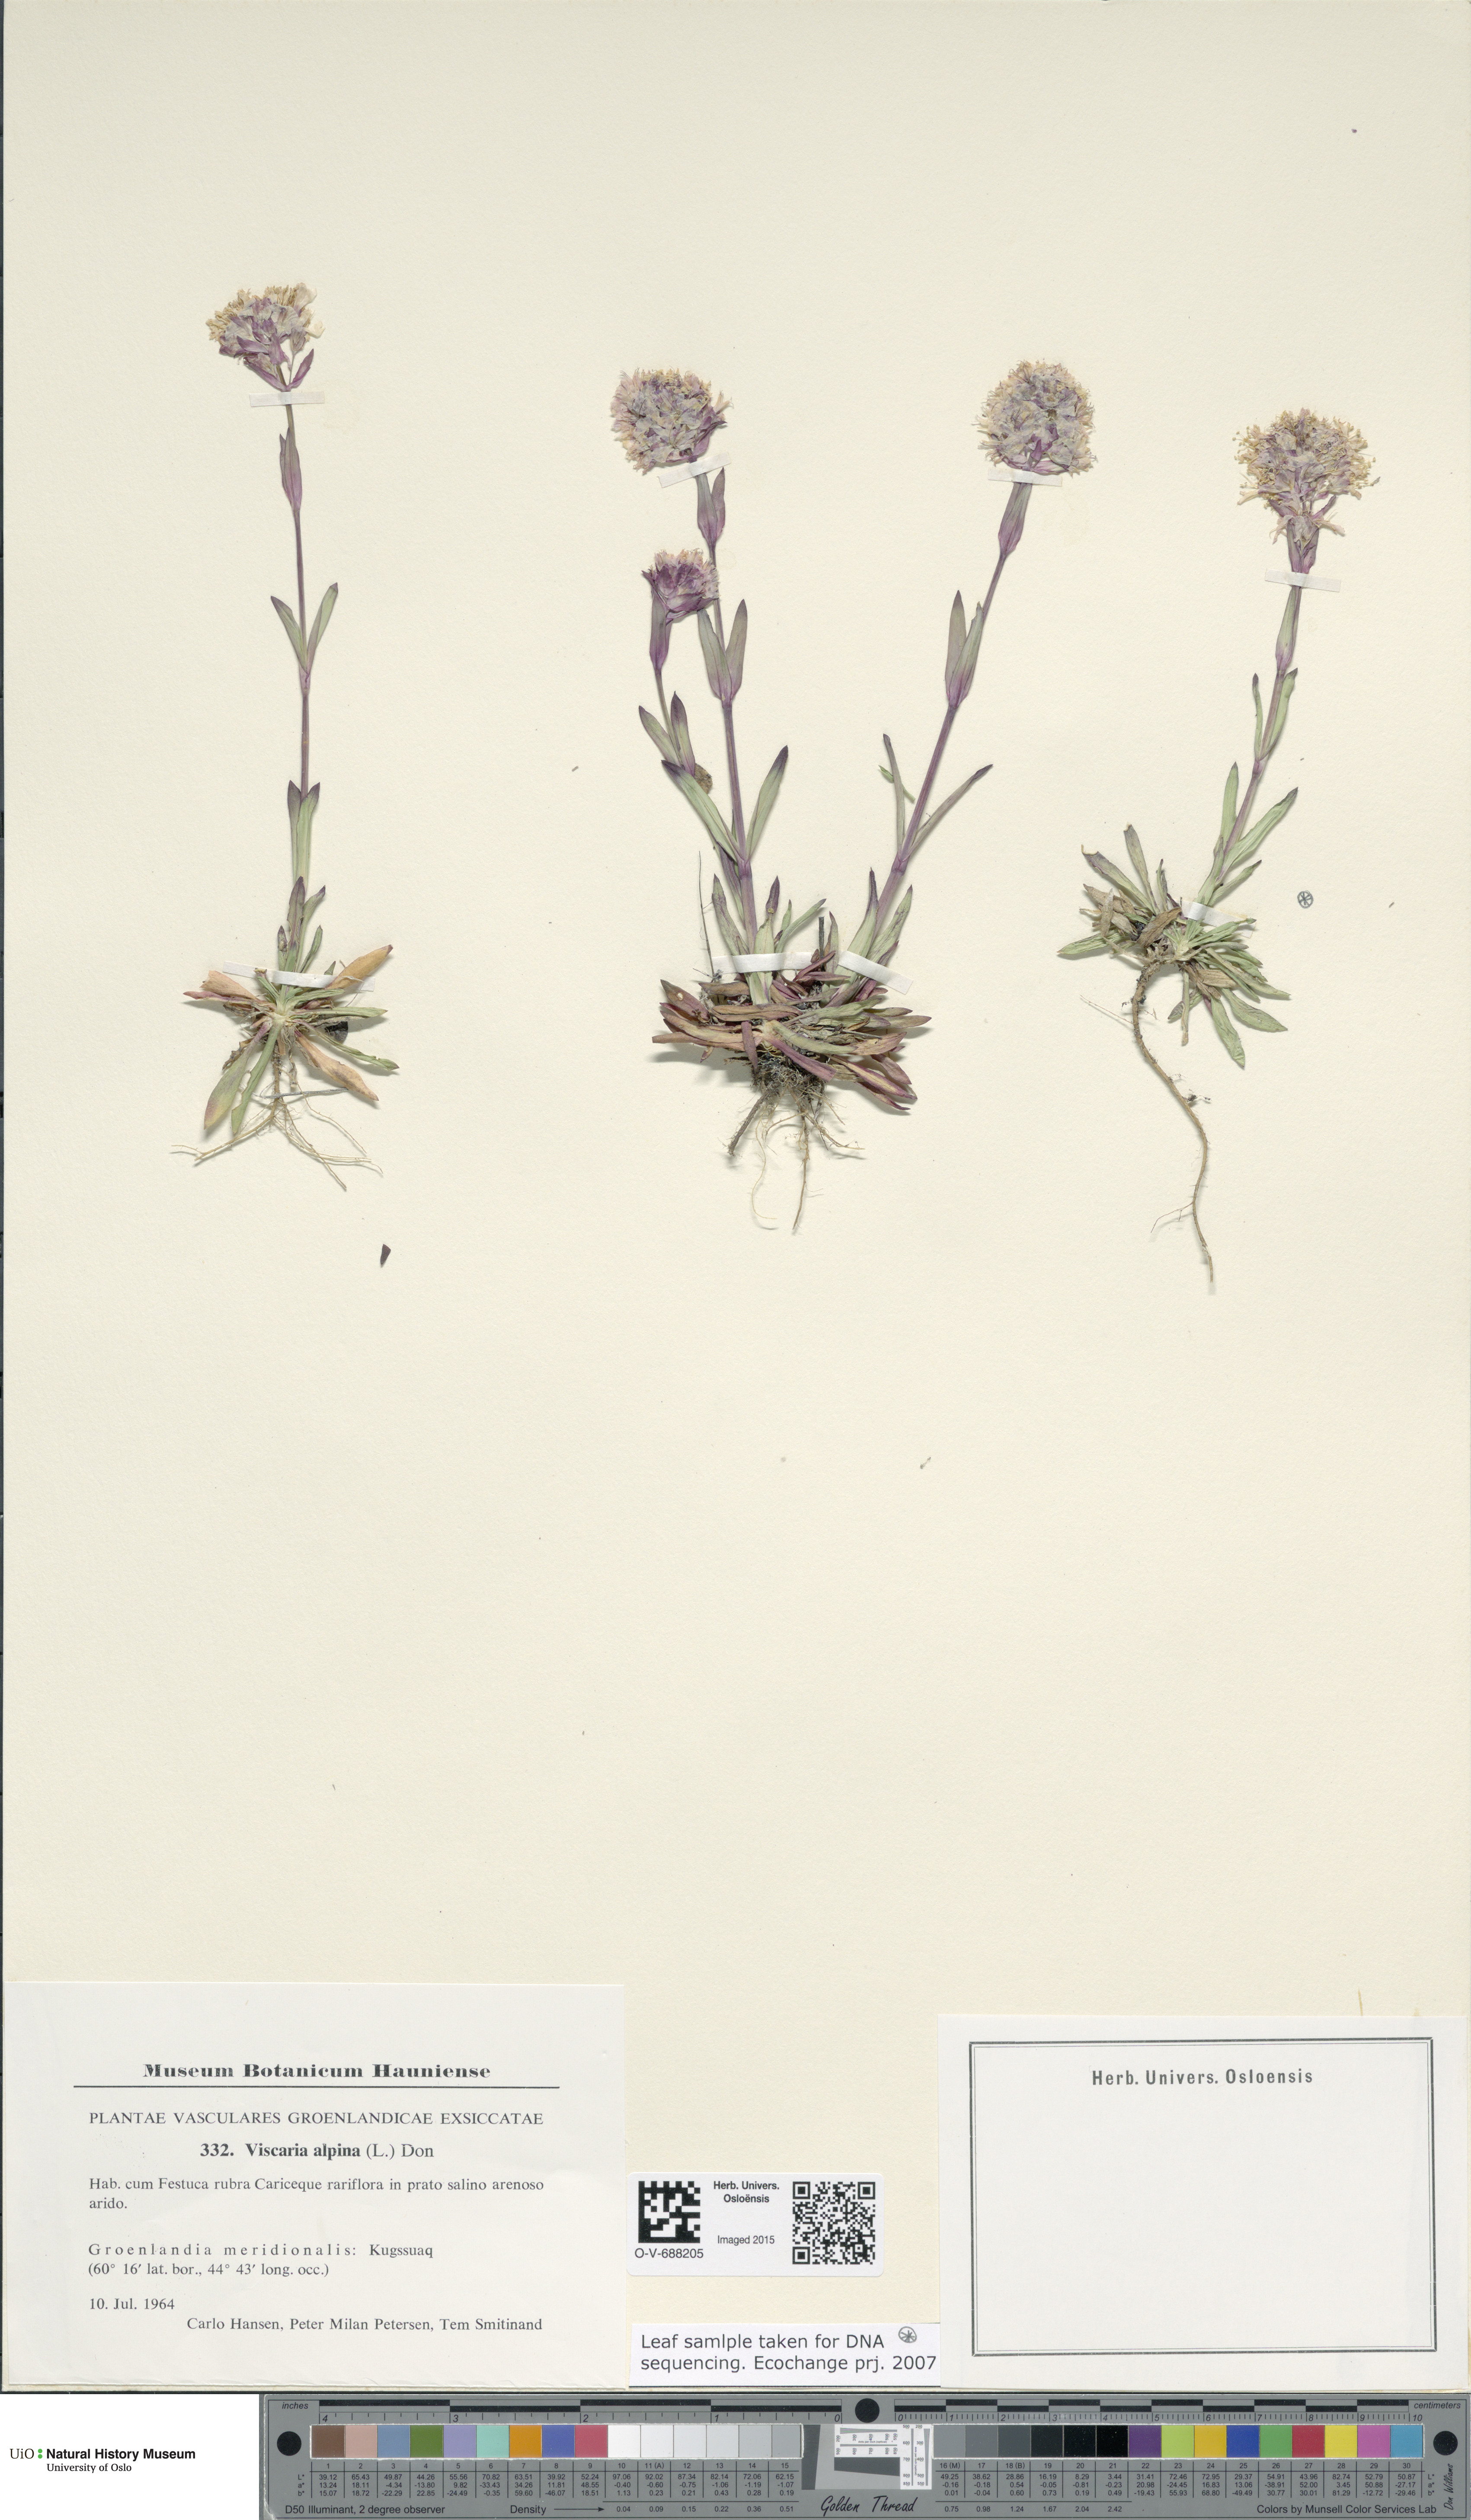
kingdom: Plantae
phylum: Tracheophyta
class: Magnoliopsida
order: Caryophyllales
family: Caryophyllaceae
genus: Viscaria
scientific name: Viscaria alpina
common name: Alpine campion
